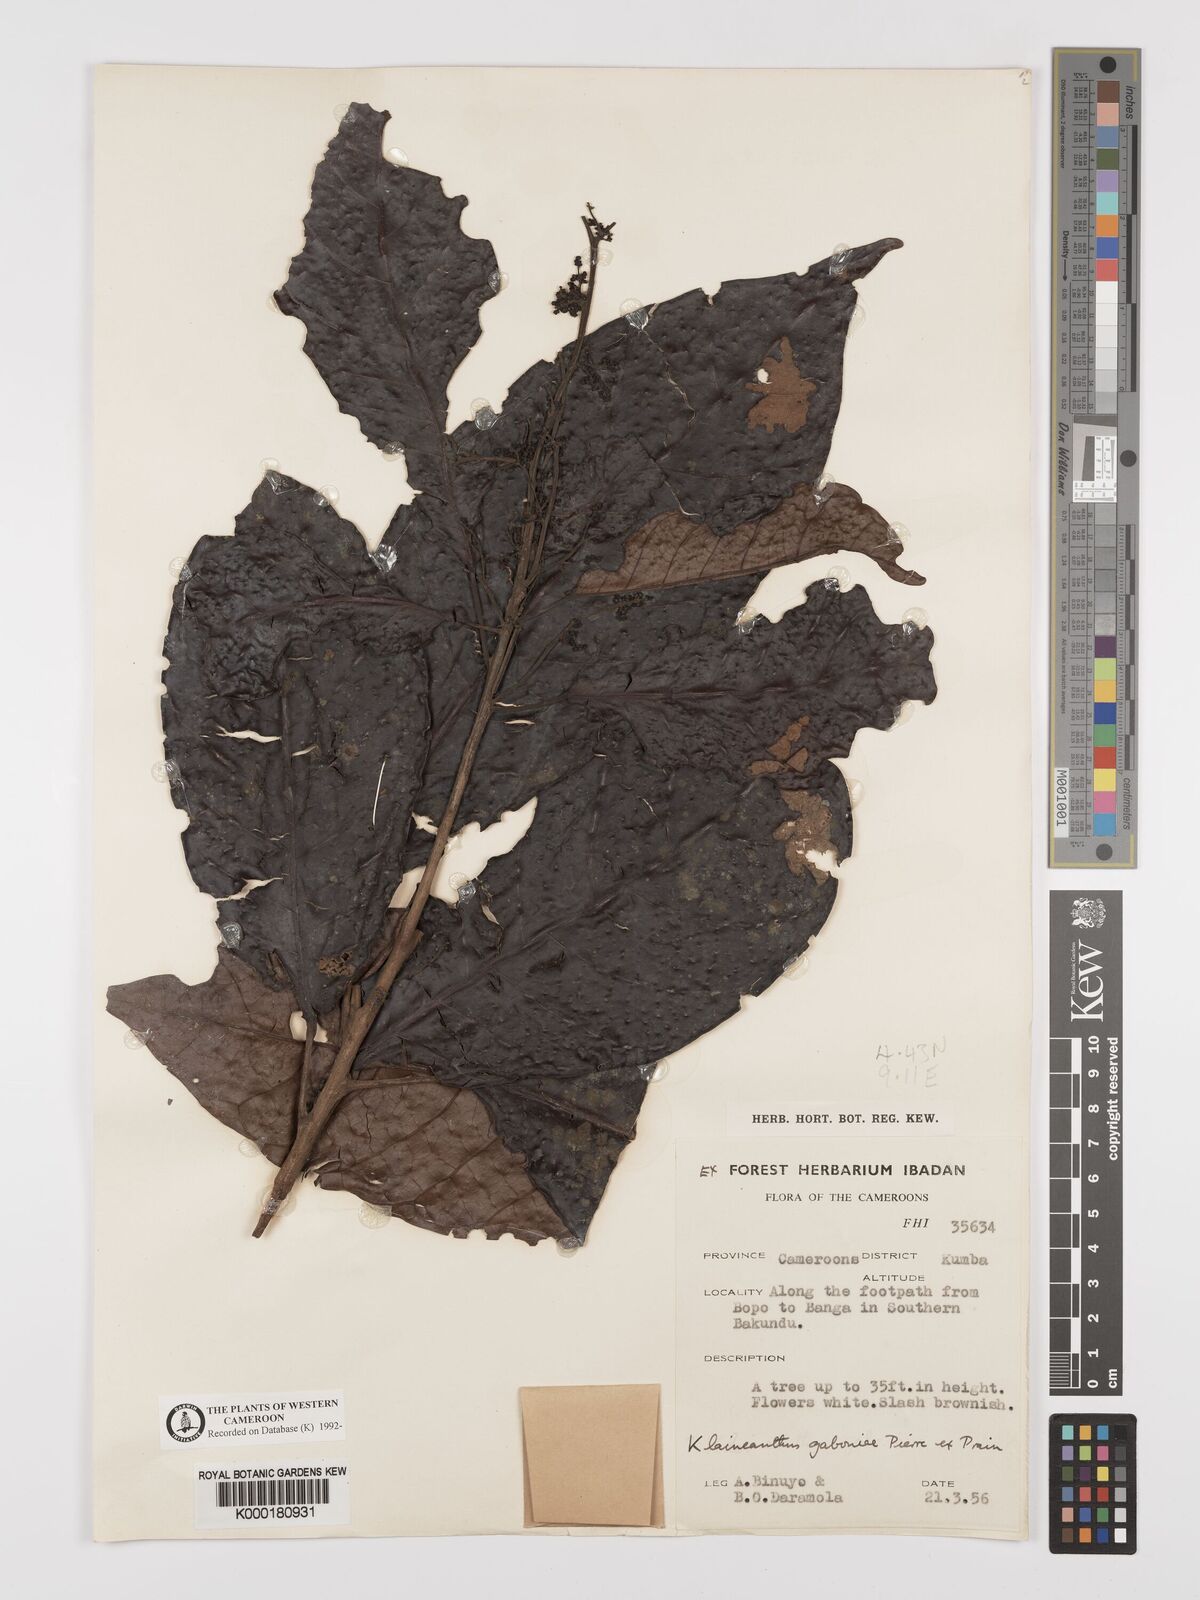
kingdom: Plantae
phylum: Tracheophyta
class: Magnoliopsida
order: Malpighiales
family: Euphorbiaceae
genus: Klaineanthus
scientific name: Klaineanthus
